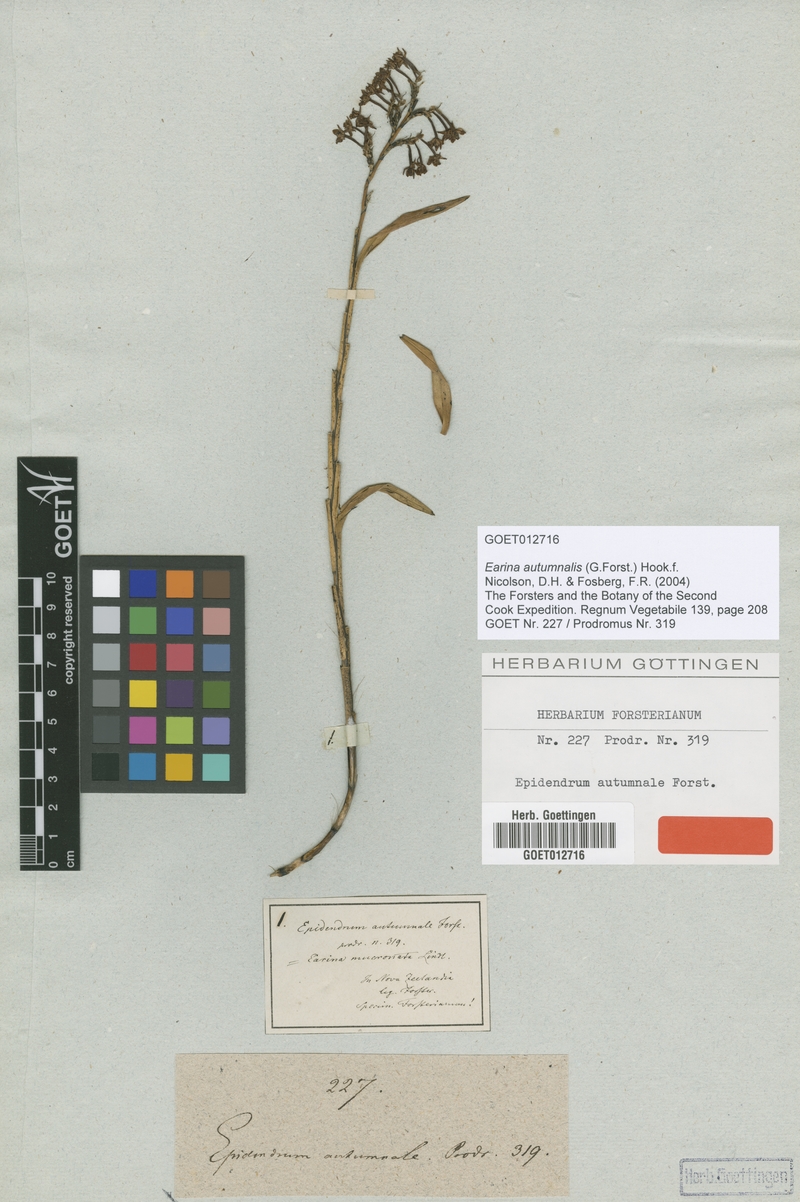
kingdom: Plantae
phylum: Tracheophyta
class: Liliopsida
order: Asparagales
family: Orchidaceae
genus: Earina
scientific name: Earina autumnalis
